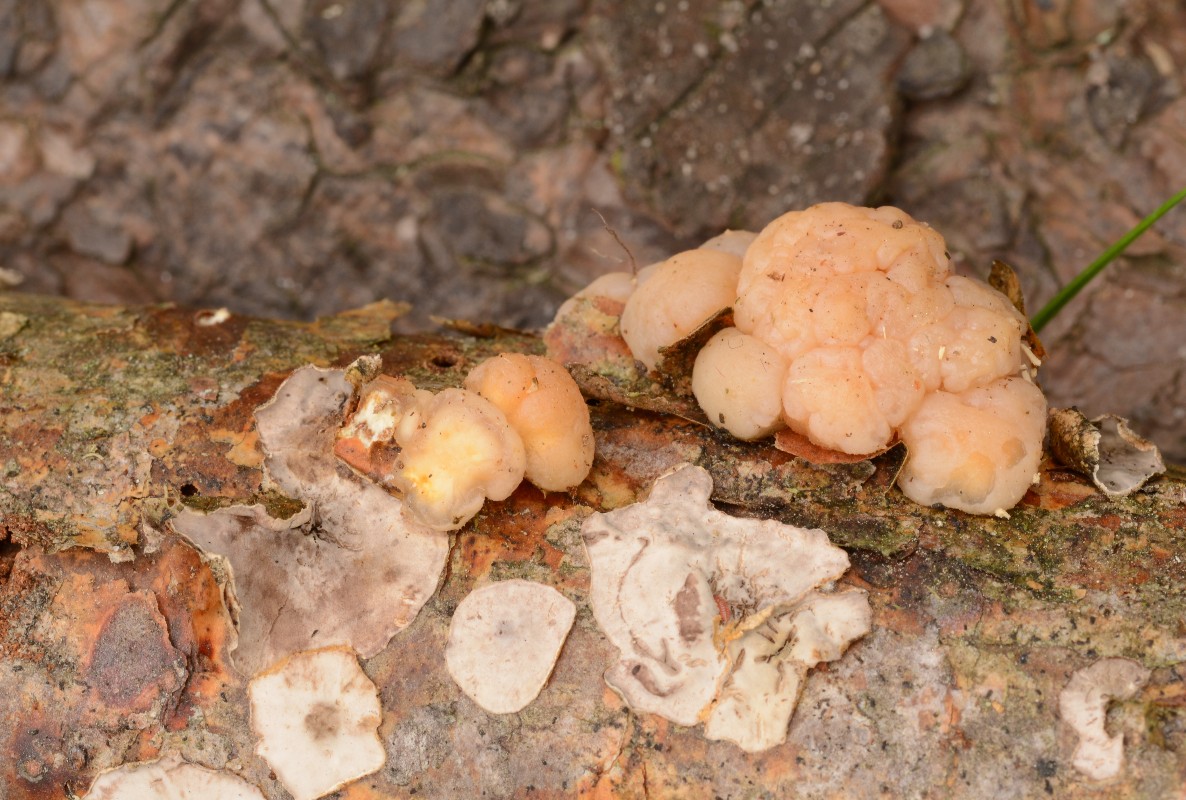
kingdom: Fungi
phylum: Basidiomycota
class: Tremellomycetes
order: Tremellales
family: Naemateliaceae
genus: Naematelia
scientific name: Naematelia encephala
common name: fyrre-bævresvamp
